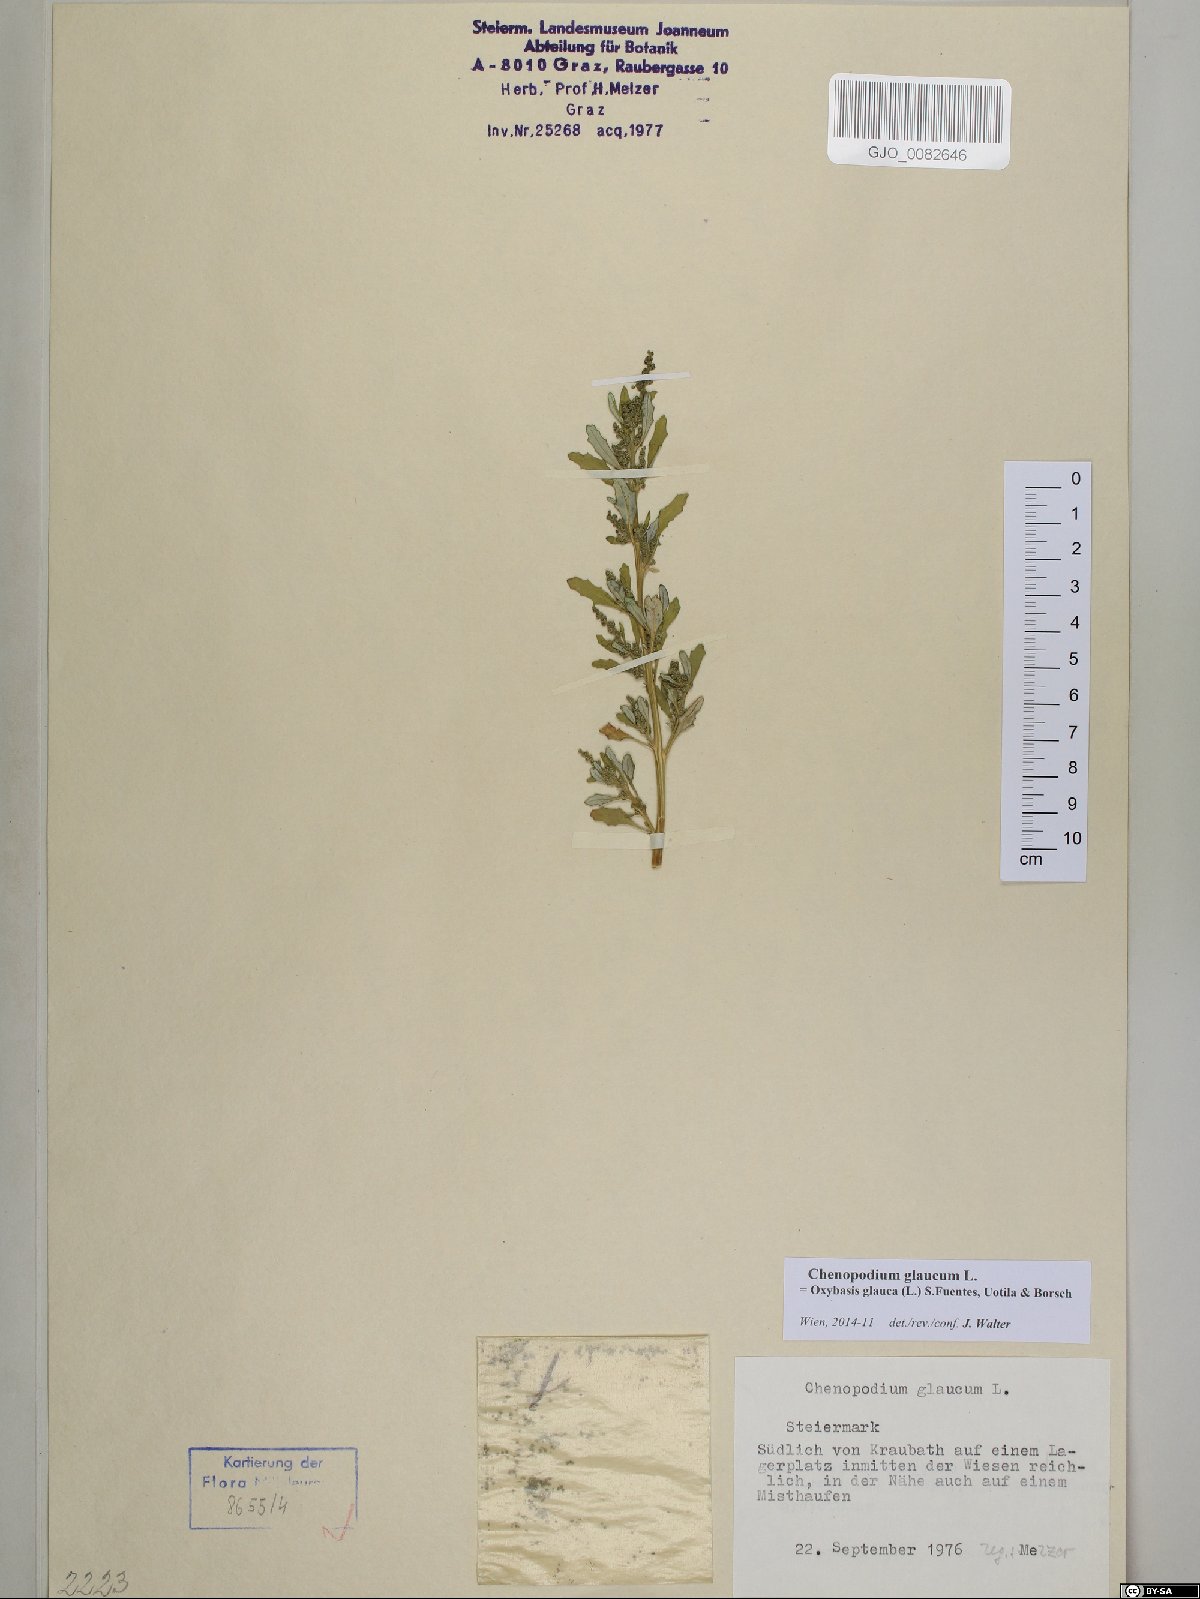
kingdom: Plantae
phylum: Tracheophyta
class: Magnoliopsida
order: Caryophyllales
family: Amaranthaceae
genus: Oxybasis
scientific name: Oxybasis glauca
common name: Glaucous goosefoot
